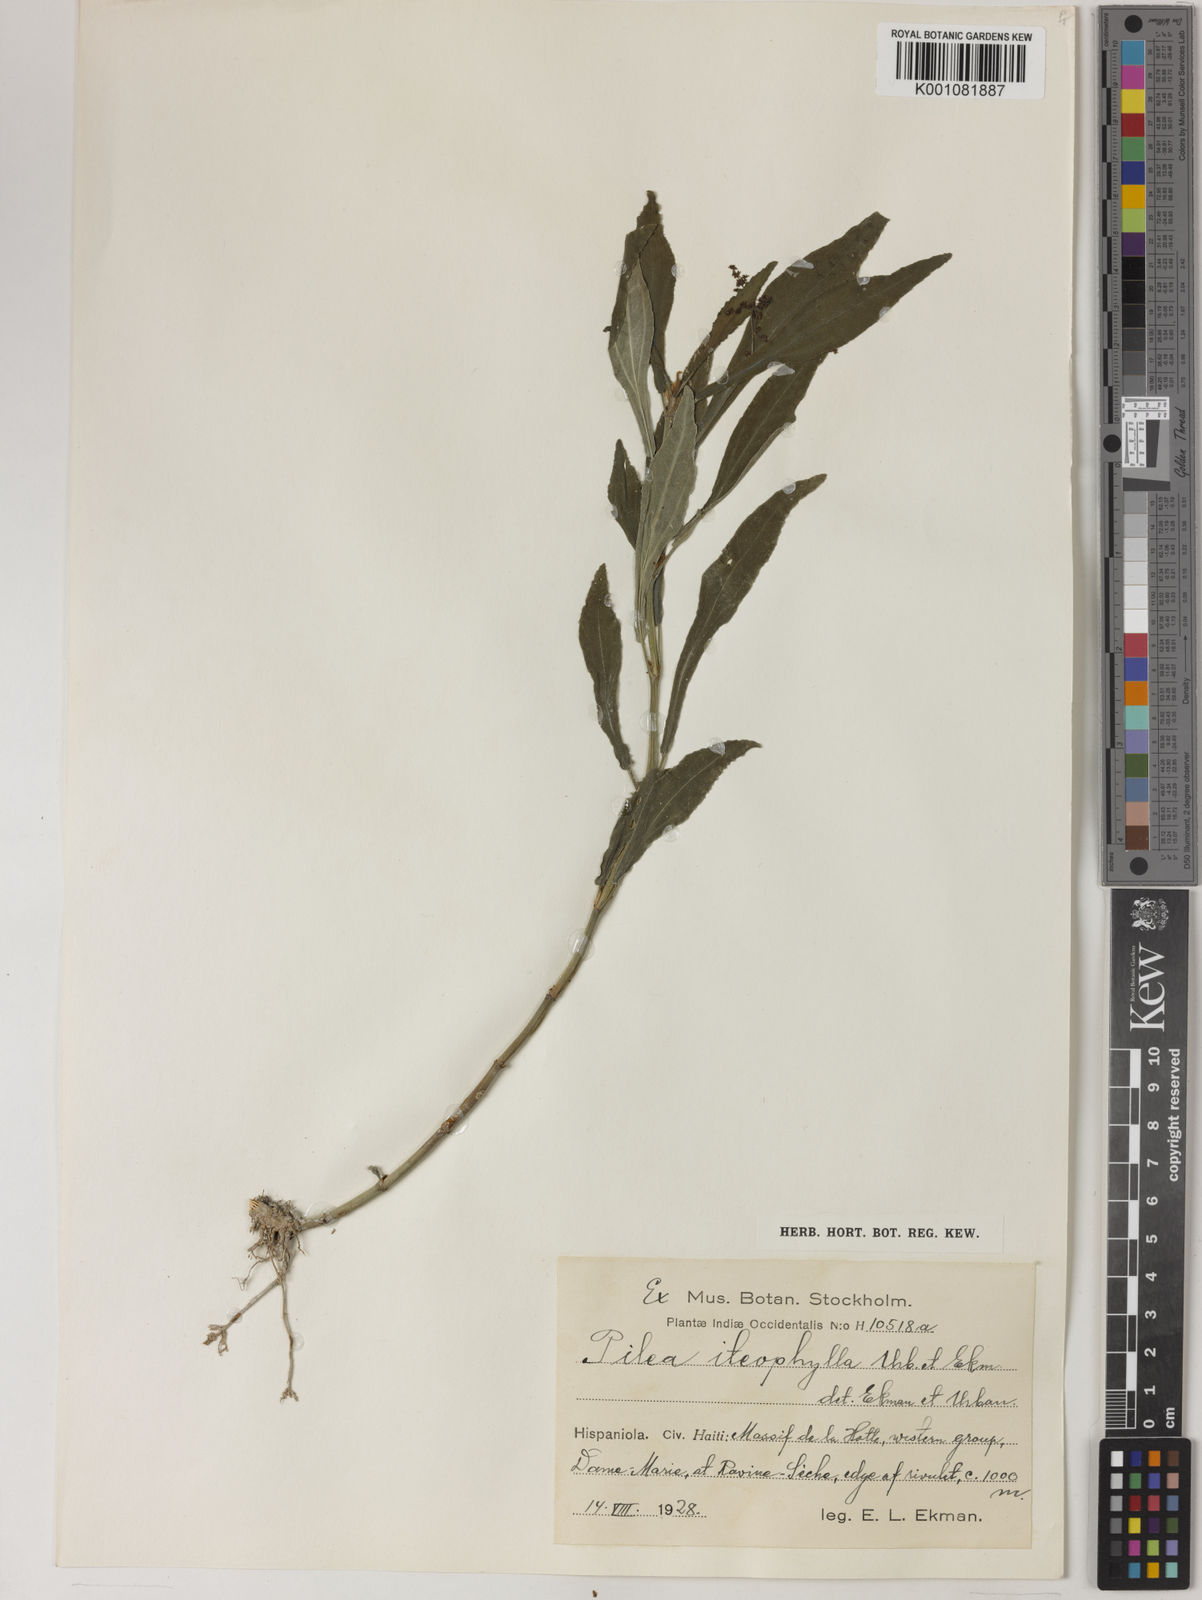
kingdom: Plantae
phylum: Tracheophyta
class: Magnoliopsida
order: Rosales
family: Urticaceae
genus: Pilea
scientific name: Pilea iteophylla
